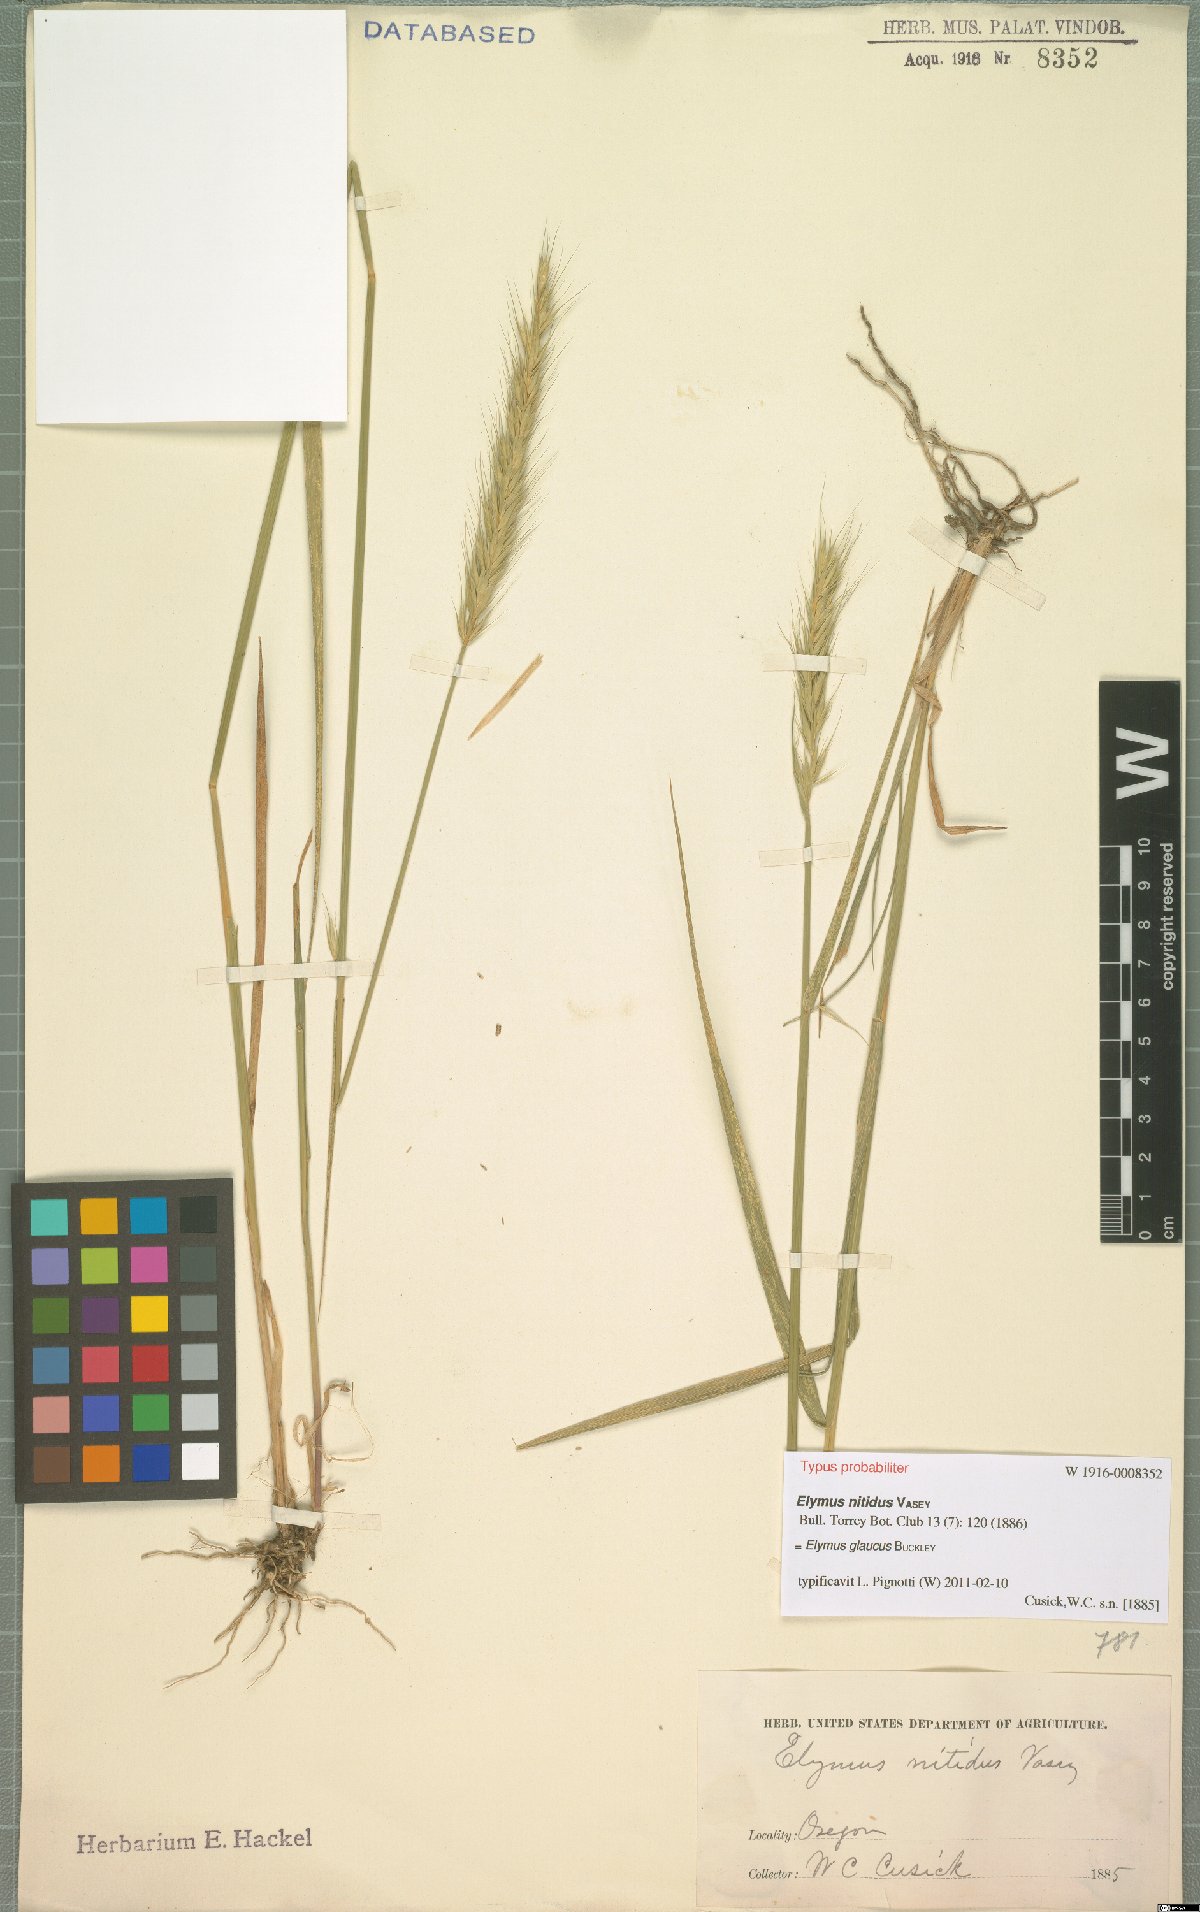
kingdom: Plantae
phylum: Tracheophyta
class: Liliopsida
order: Poales
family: Poaceae
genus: Elymus
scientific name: Elymus glaucus
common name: Blue wild rye
